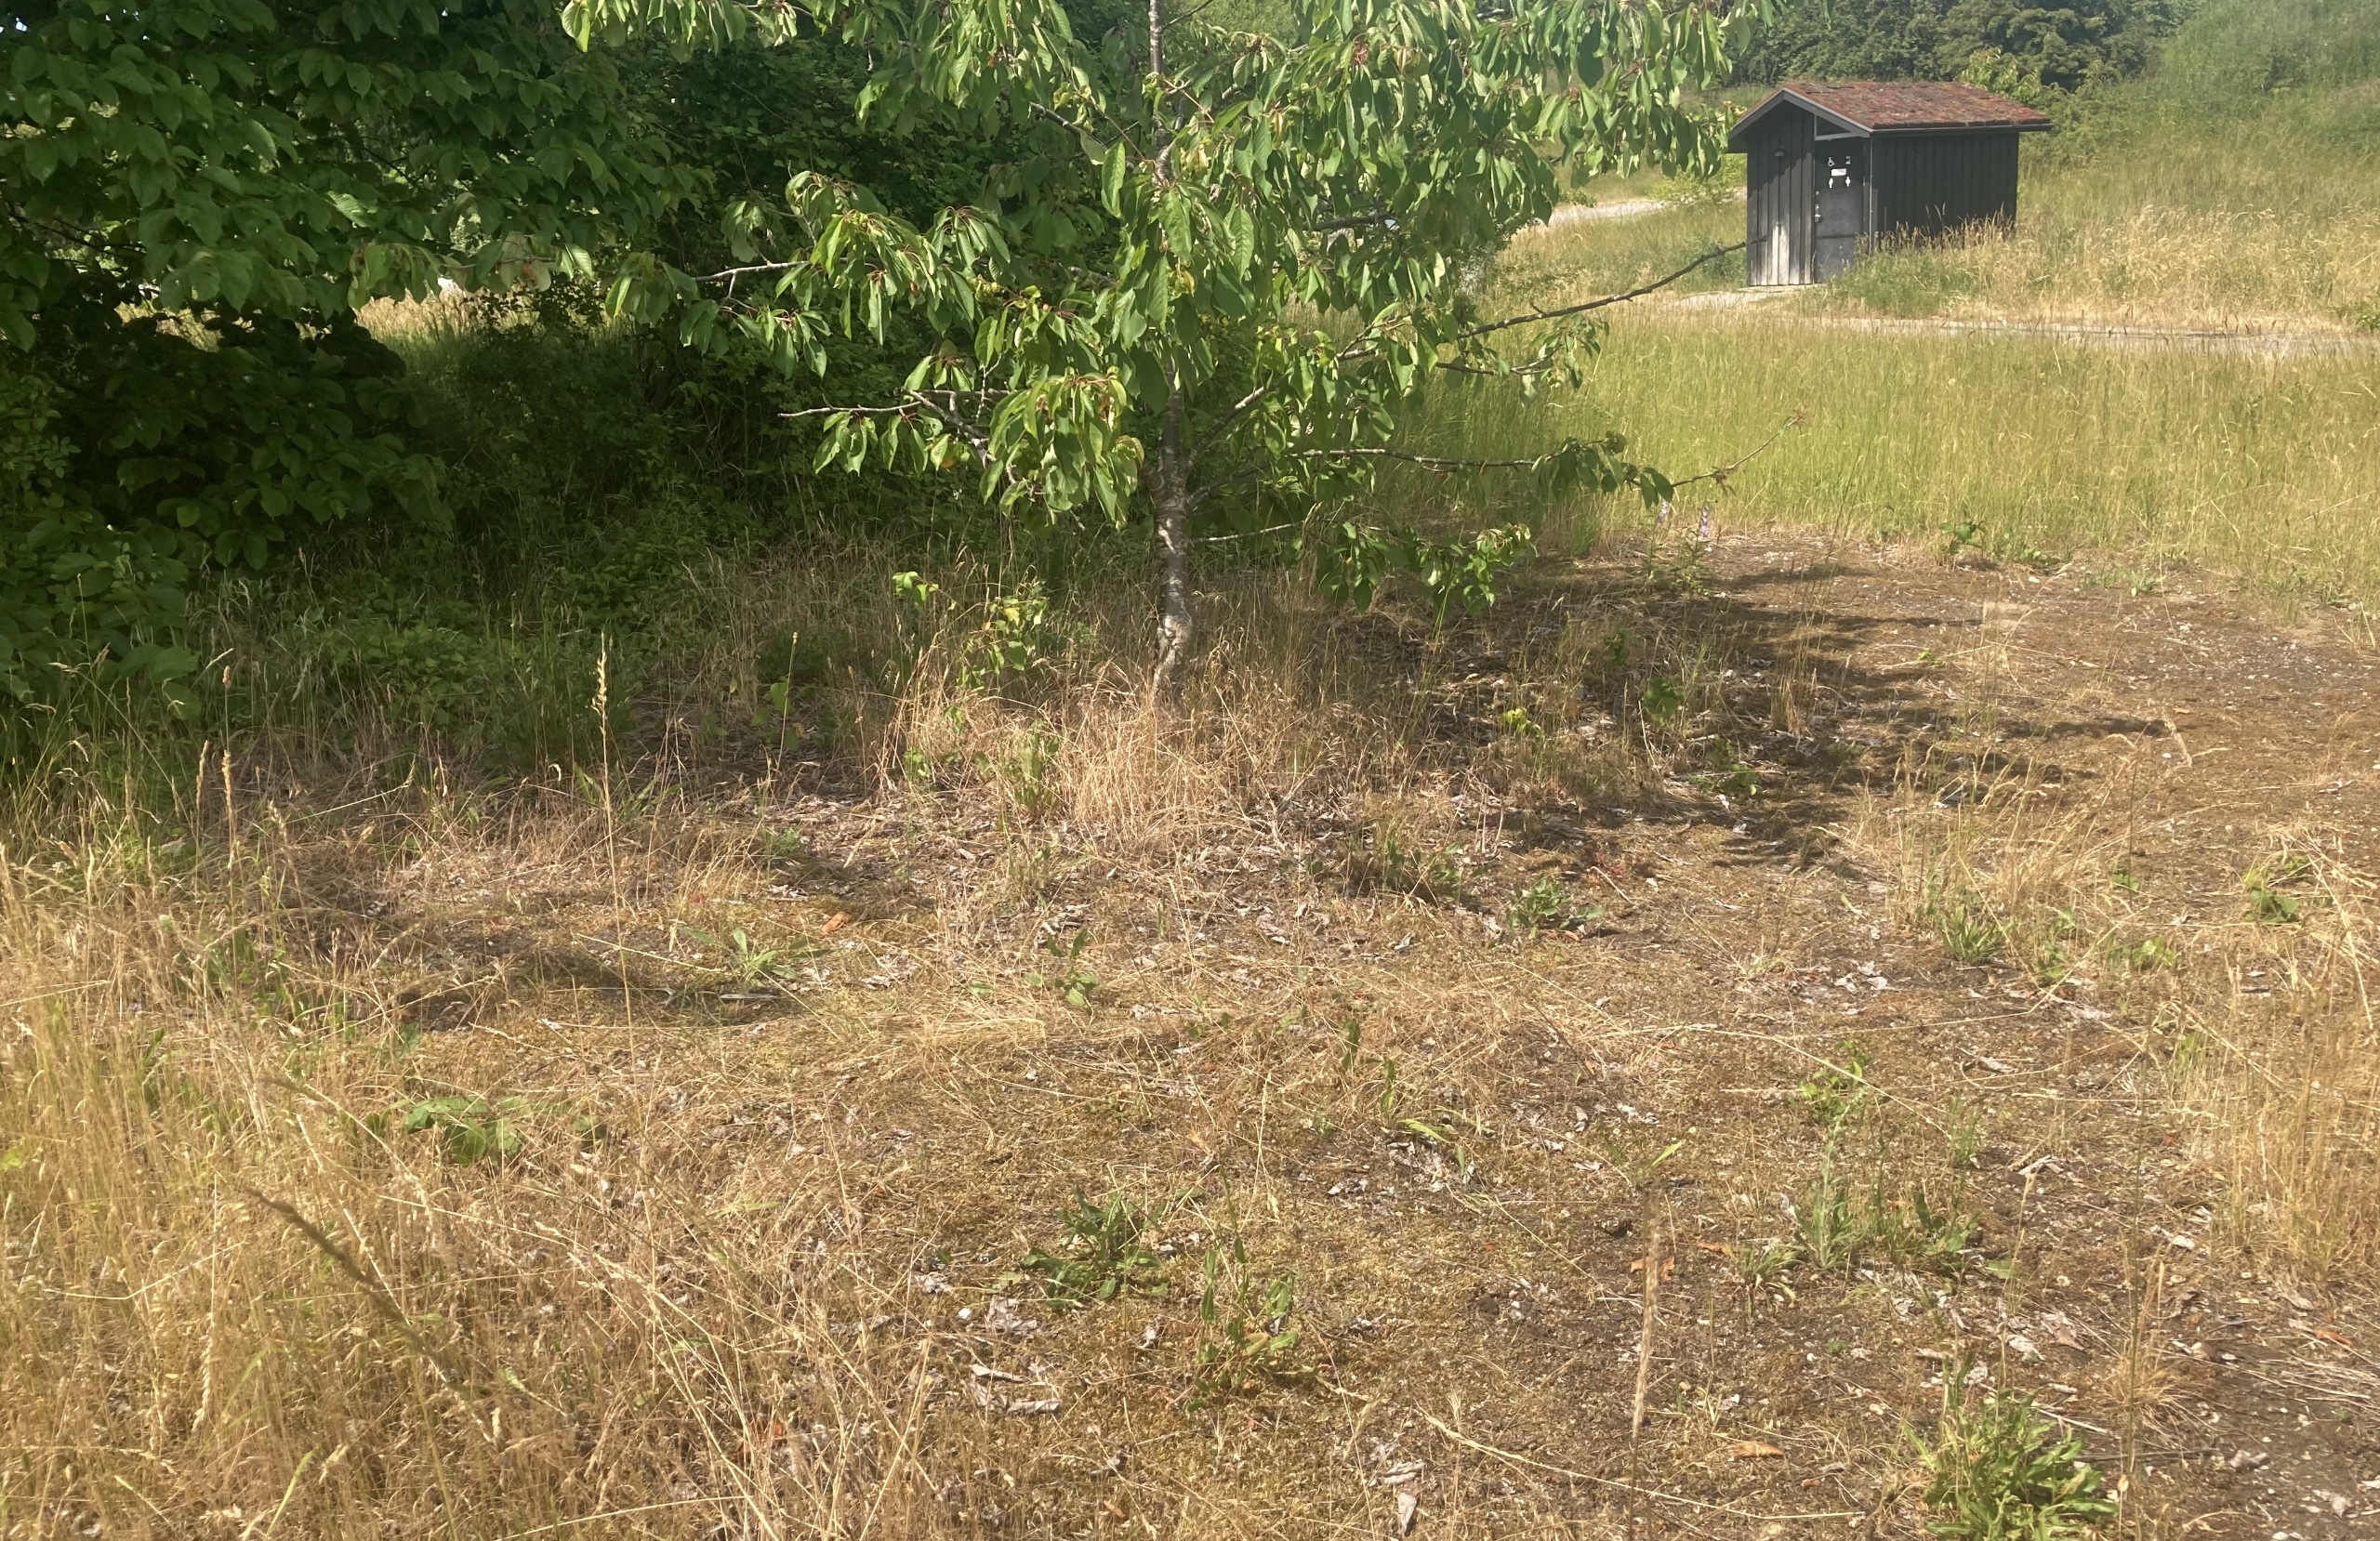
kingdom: Plantae
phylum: Tracheophyta
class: Magnoliopsida
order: Caryophyllales
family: Caryophyllaceae
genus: Petrorhagia
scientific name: Petrorhagia prolifera
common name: Knopnellike
